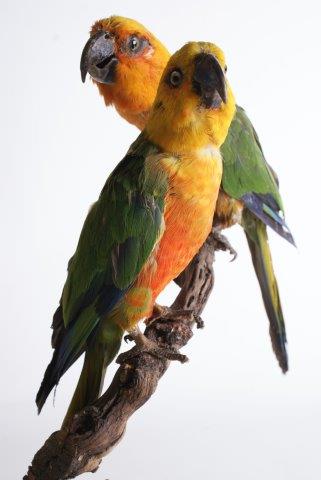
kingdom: Animalia
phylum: Chordata
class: Aves
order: Psittaciformes
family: Psittacidae
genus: Aratinga
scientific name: Aratinga jandaya
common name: Jandaya parakeet
